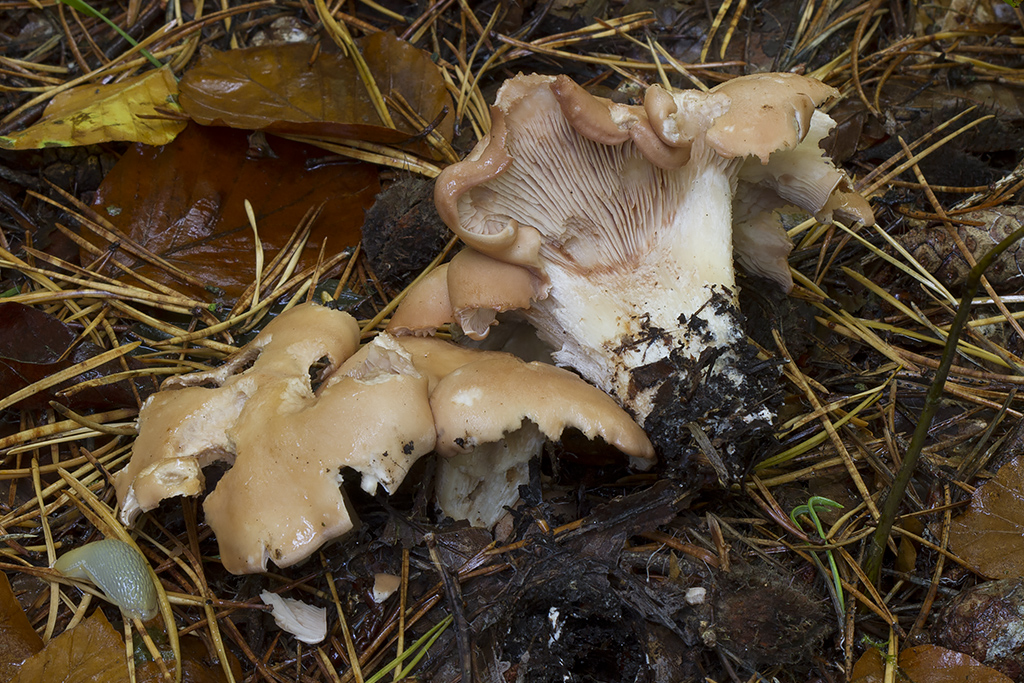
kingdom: Fungi
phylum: Basidiomycota
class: Agaricomycetes
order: Agaricales
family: Entolomataceae
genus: Clitopilus
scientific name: Clitopilus geminus
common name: kødfarvet troldhat
